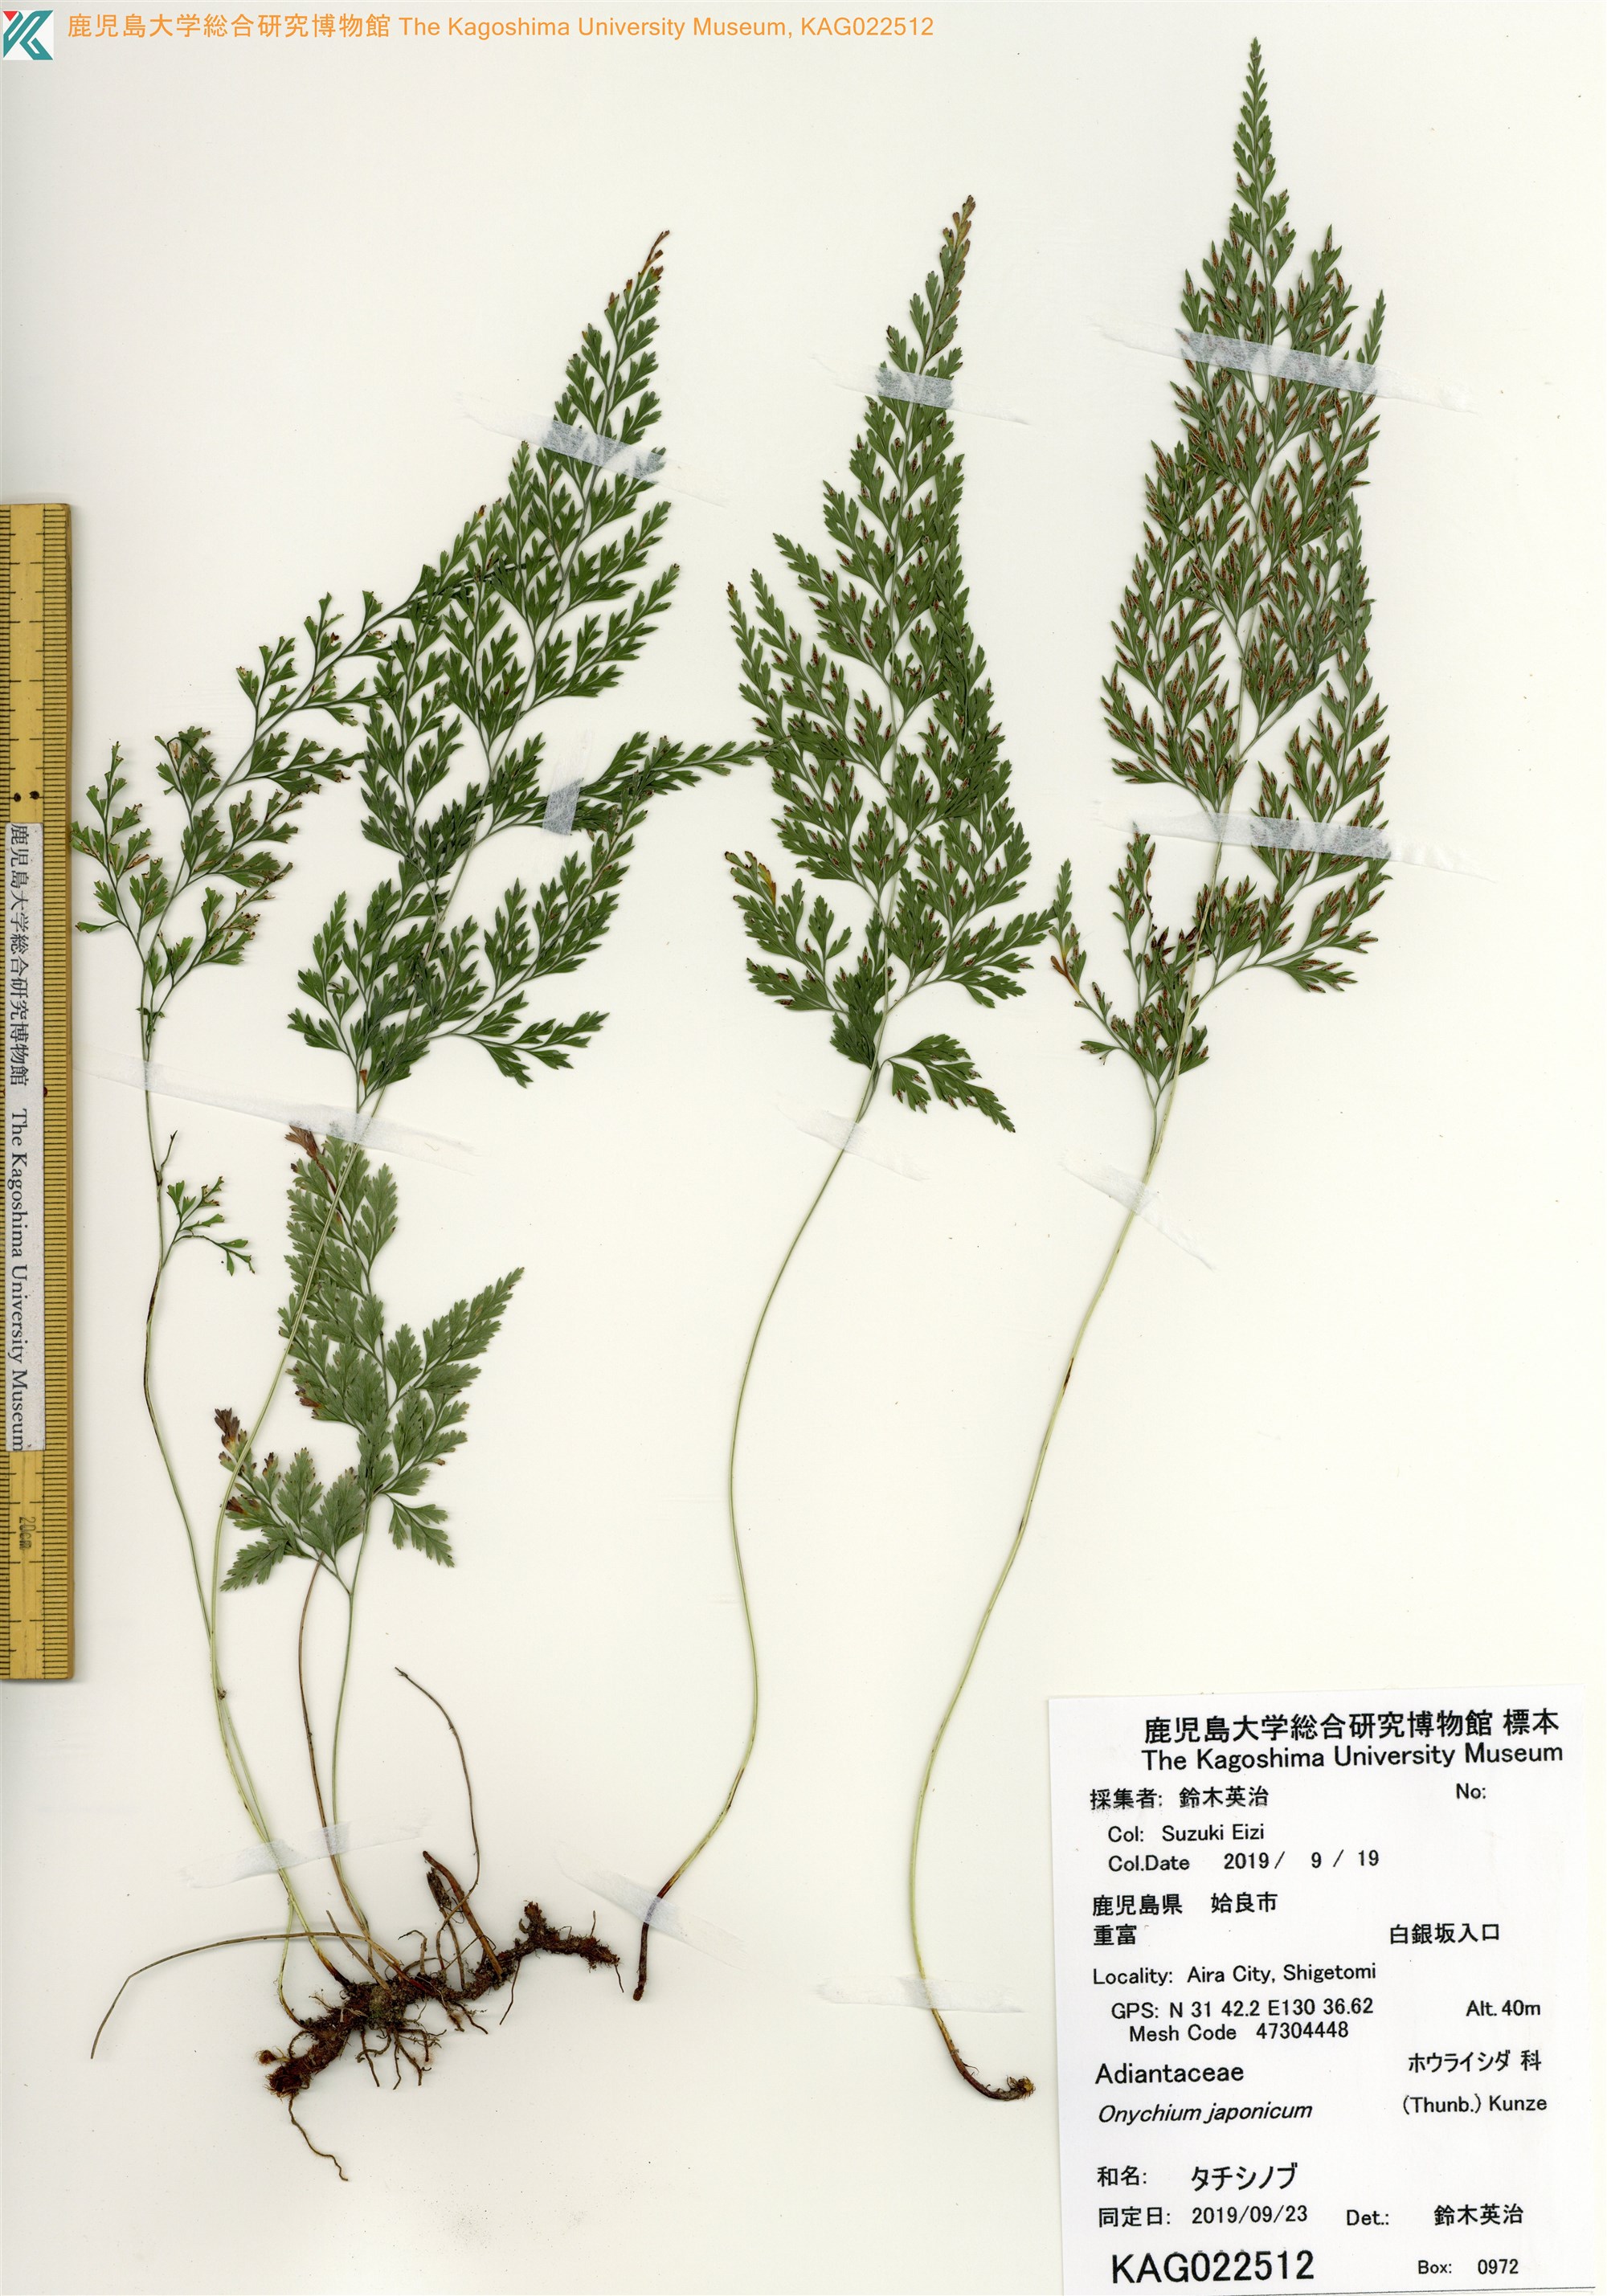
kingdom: Plantae
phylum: Tracheophyta
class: Polypodiopsida
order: Polypodiales
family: Pteridaceae
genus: Onychium
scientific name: Onychium japonicum
